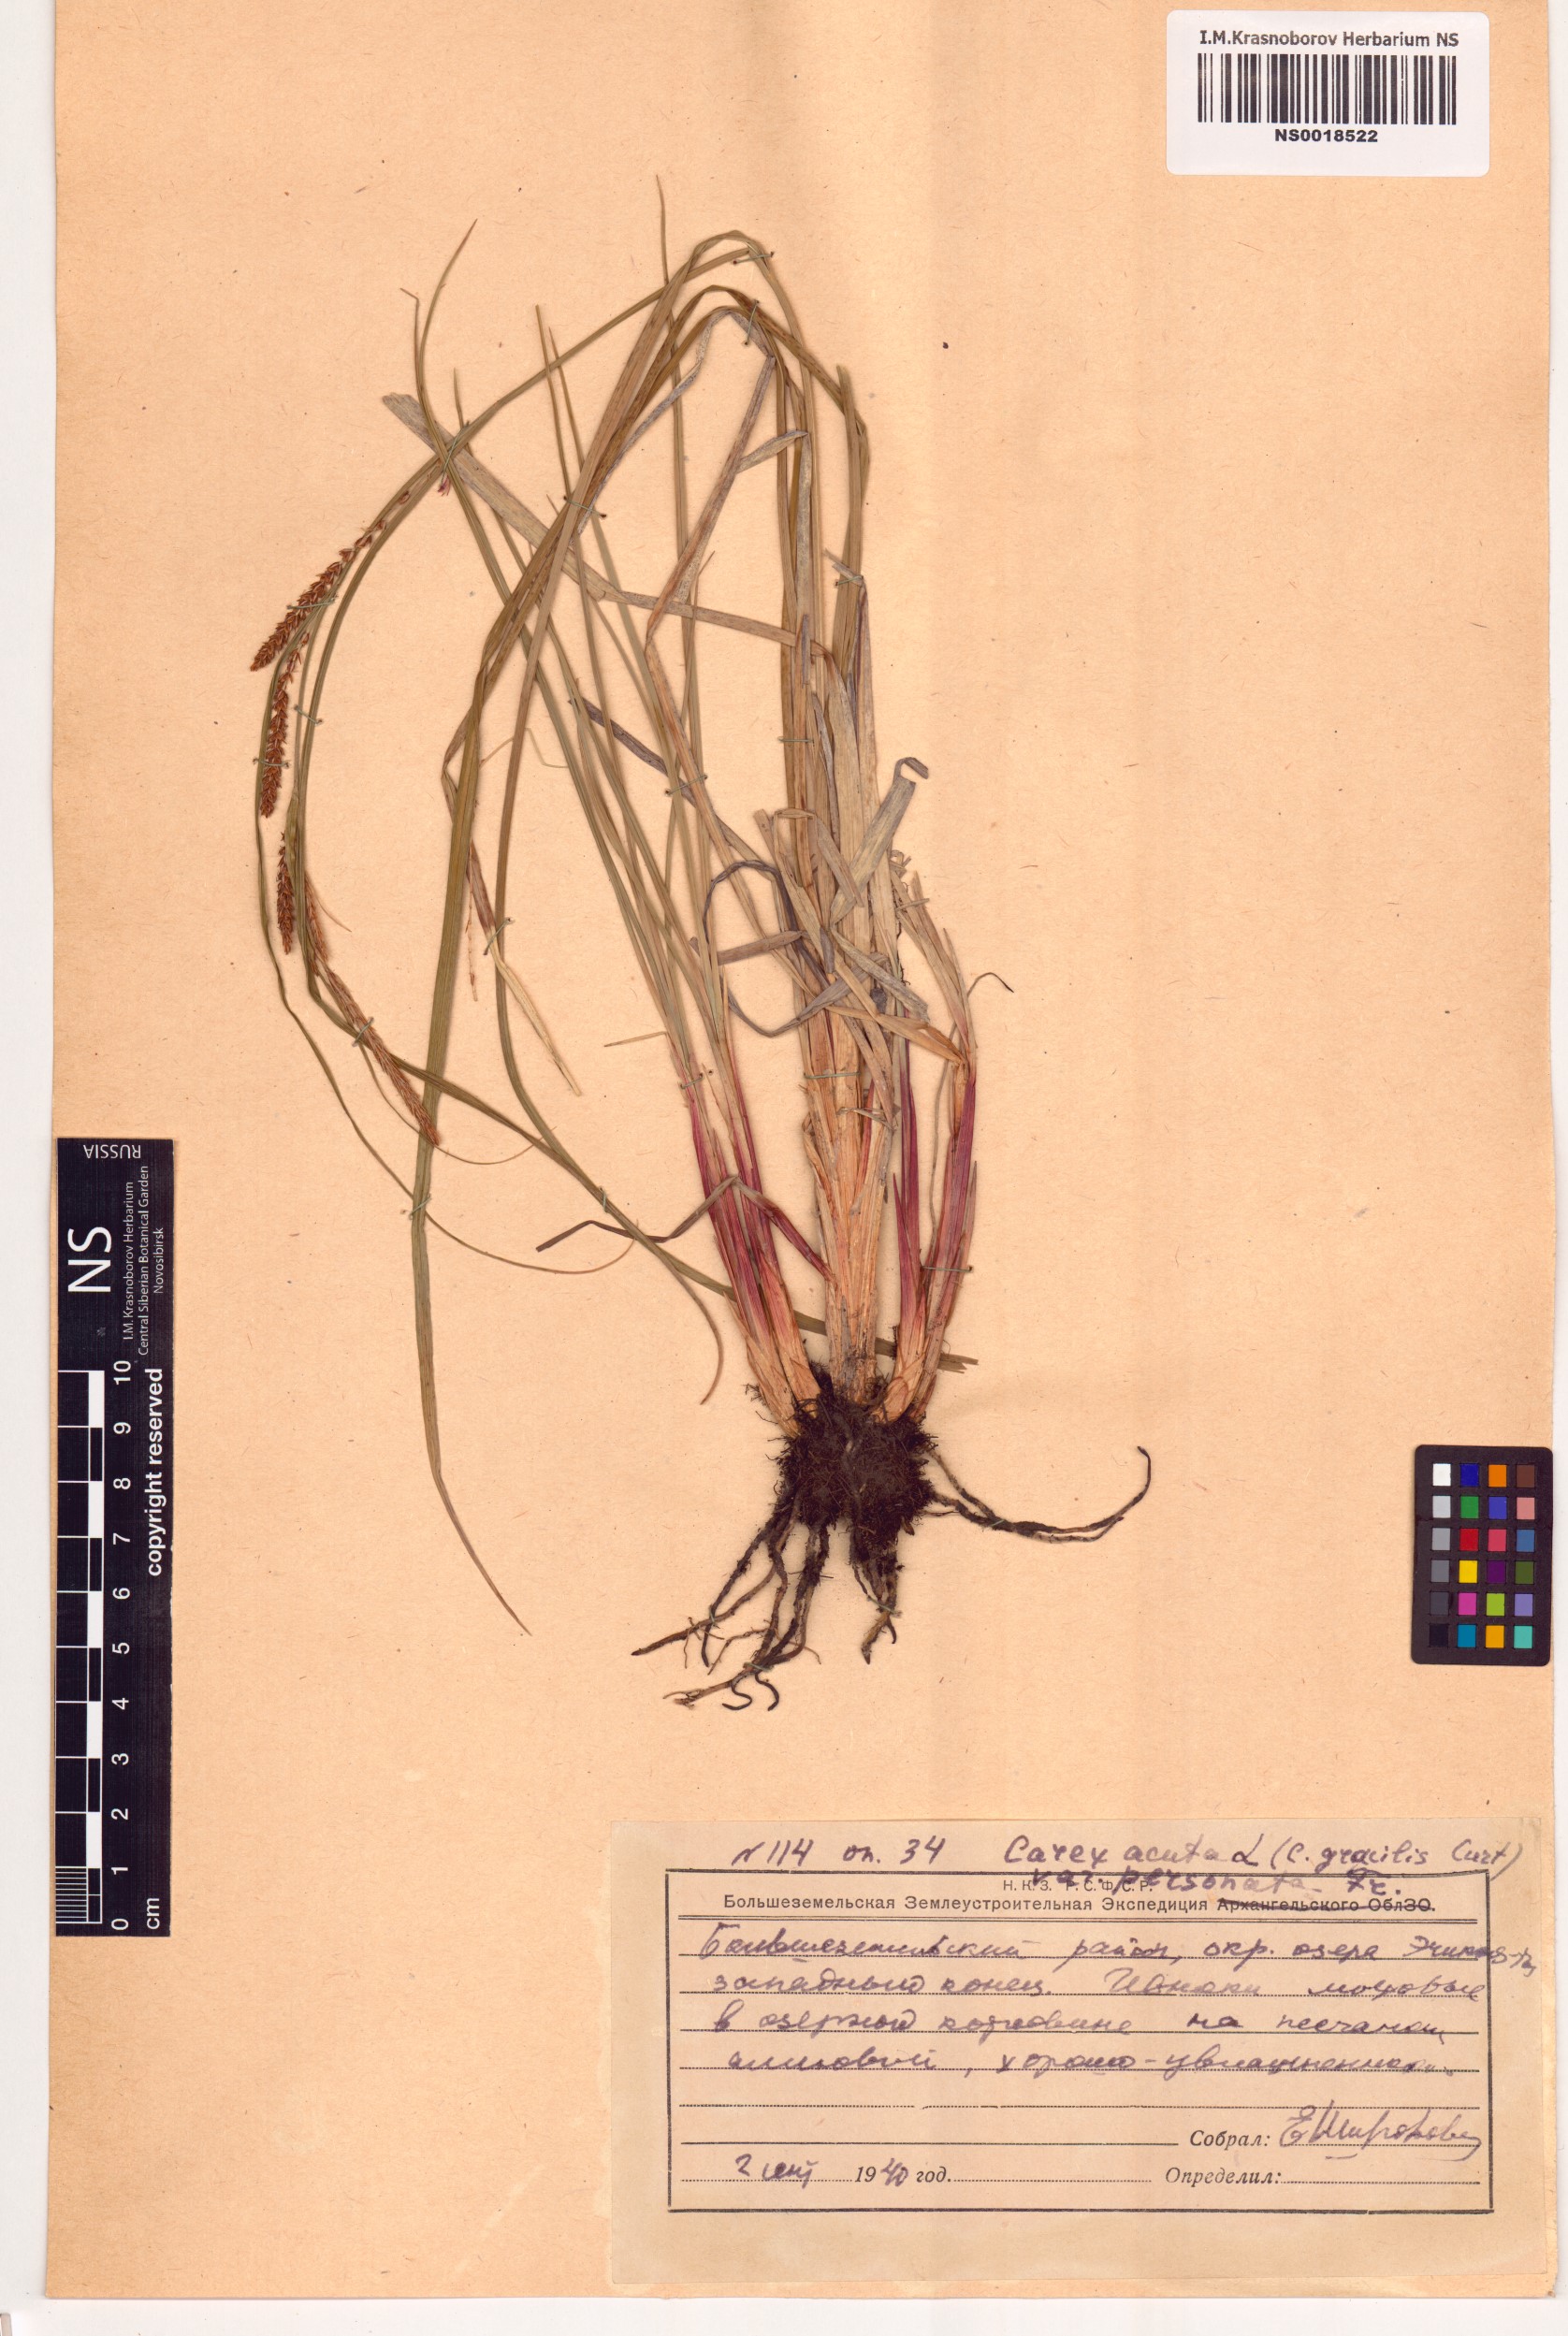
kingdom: Plantae
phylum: Tracheophyta
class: Liliopsida
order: Poales
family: Cyperaceae
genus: Carex
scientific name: Carex acuta
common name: Slender tufted-sedge
